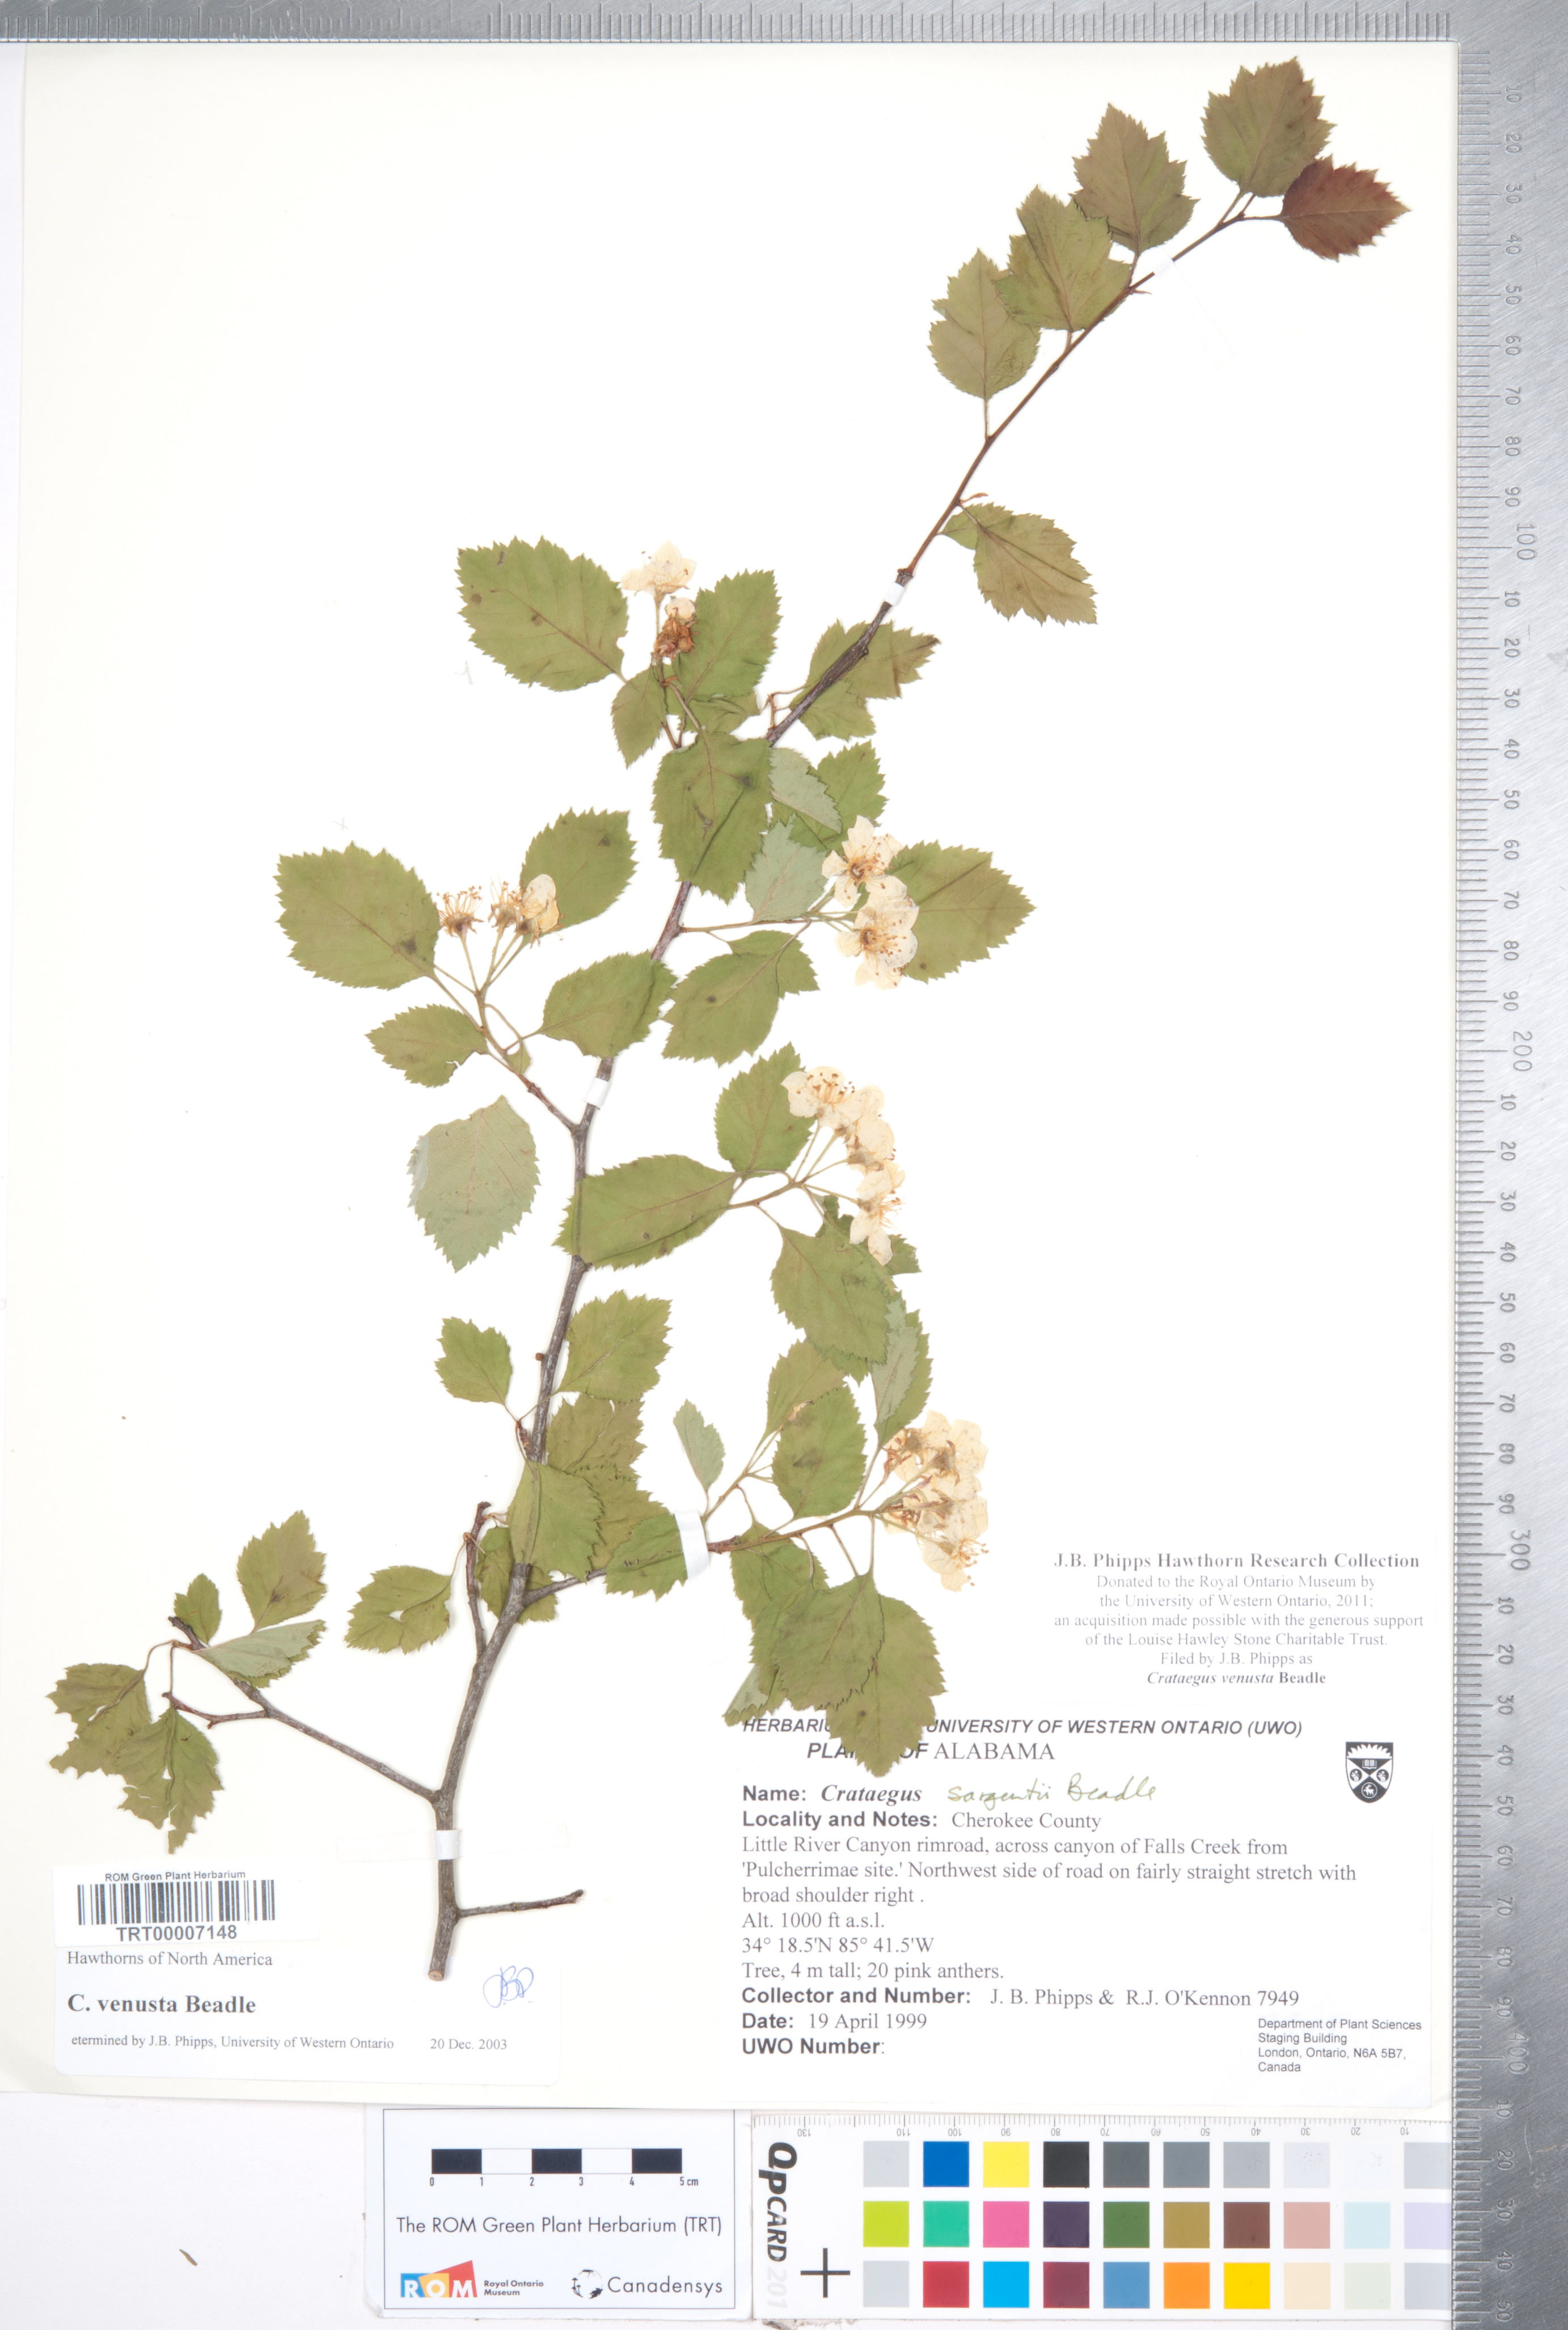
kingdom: Plantae
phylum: Tracheophyta
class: Magnoliopsida
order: Rosales
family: Rosaceae
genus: Crataegus
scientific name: Crataegus venusta
